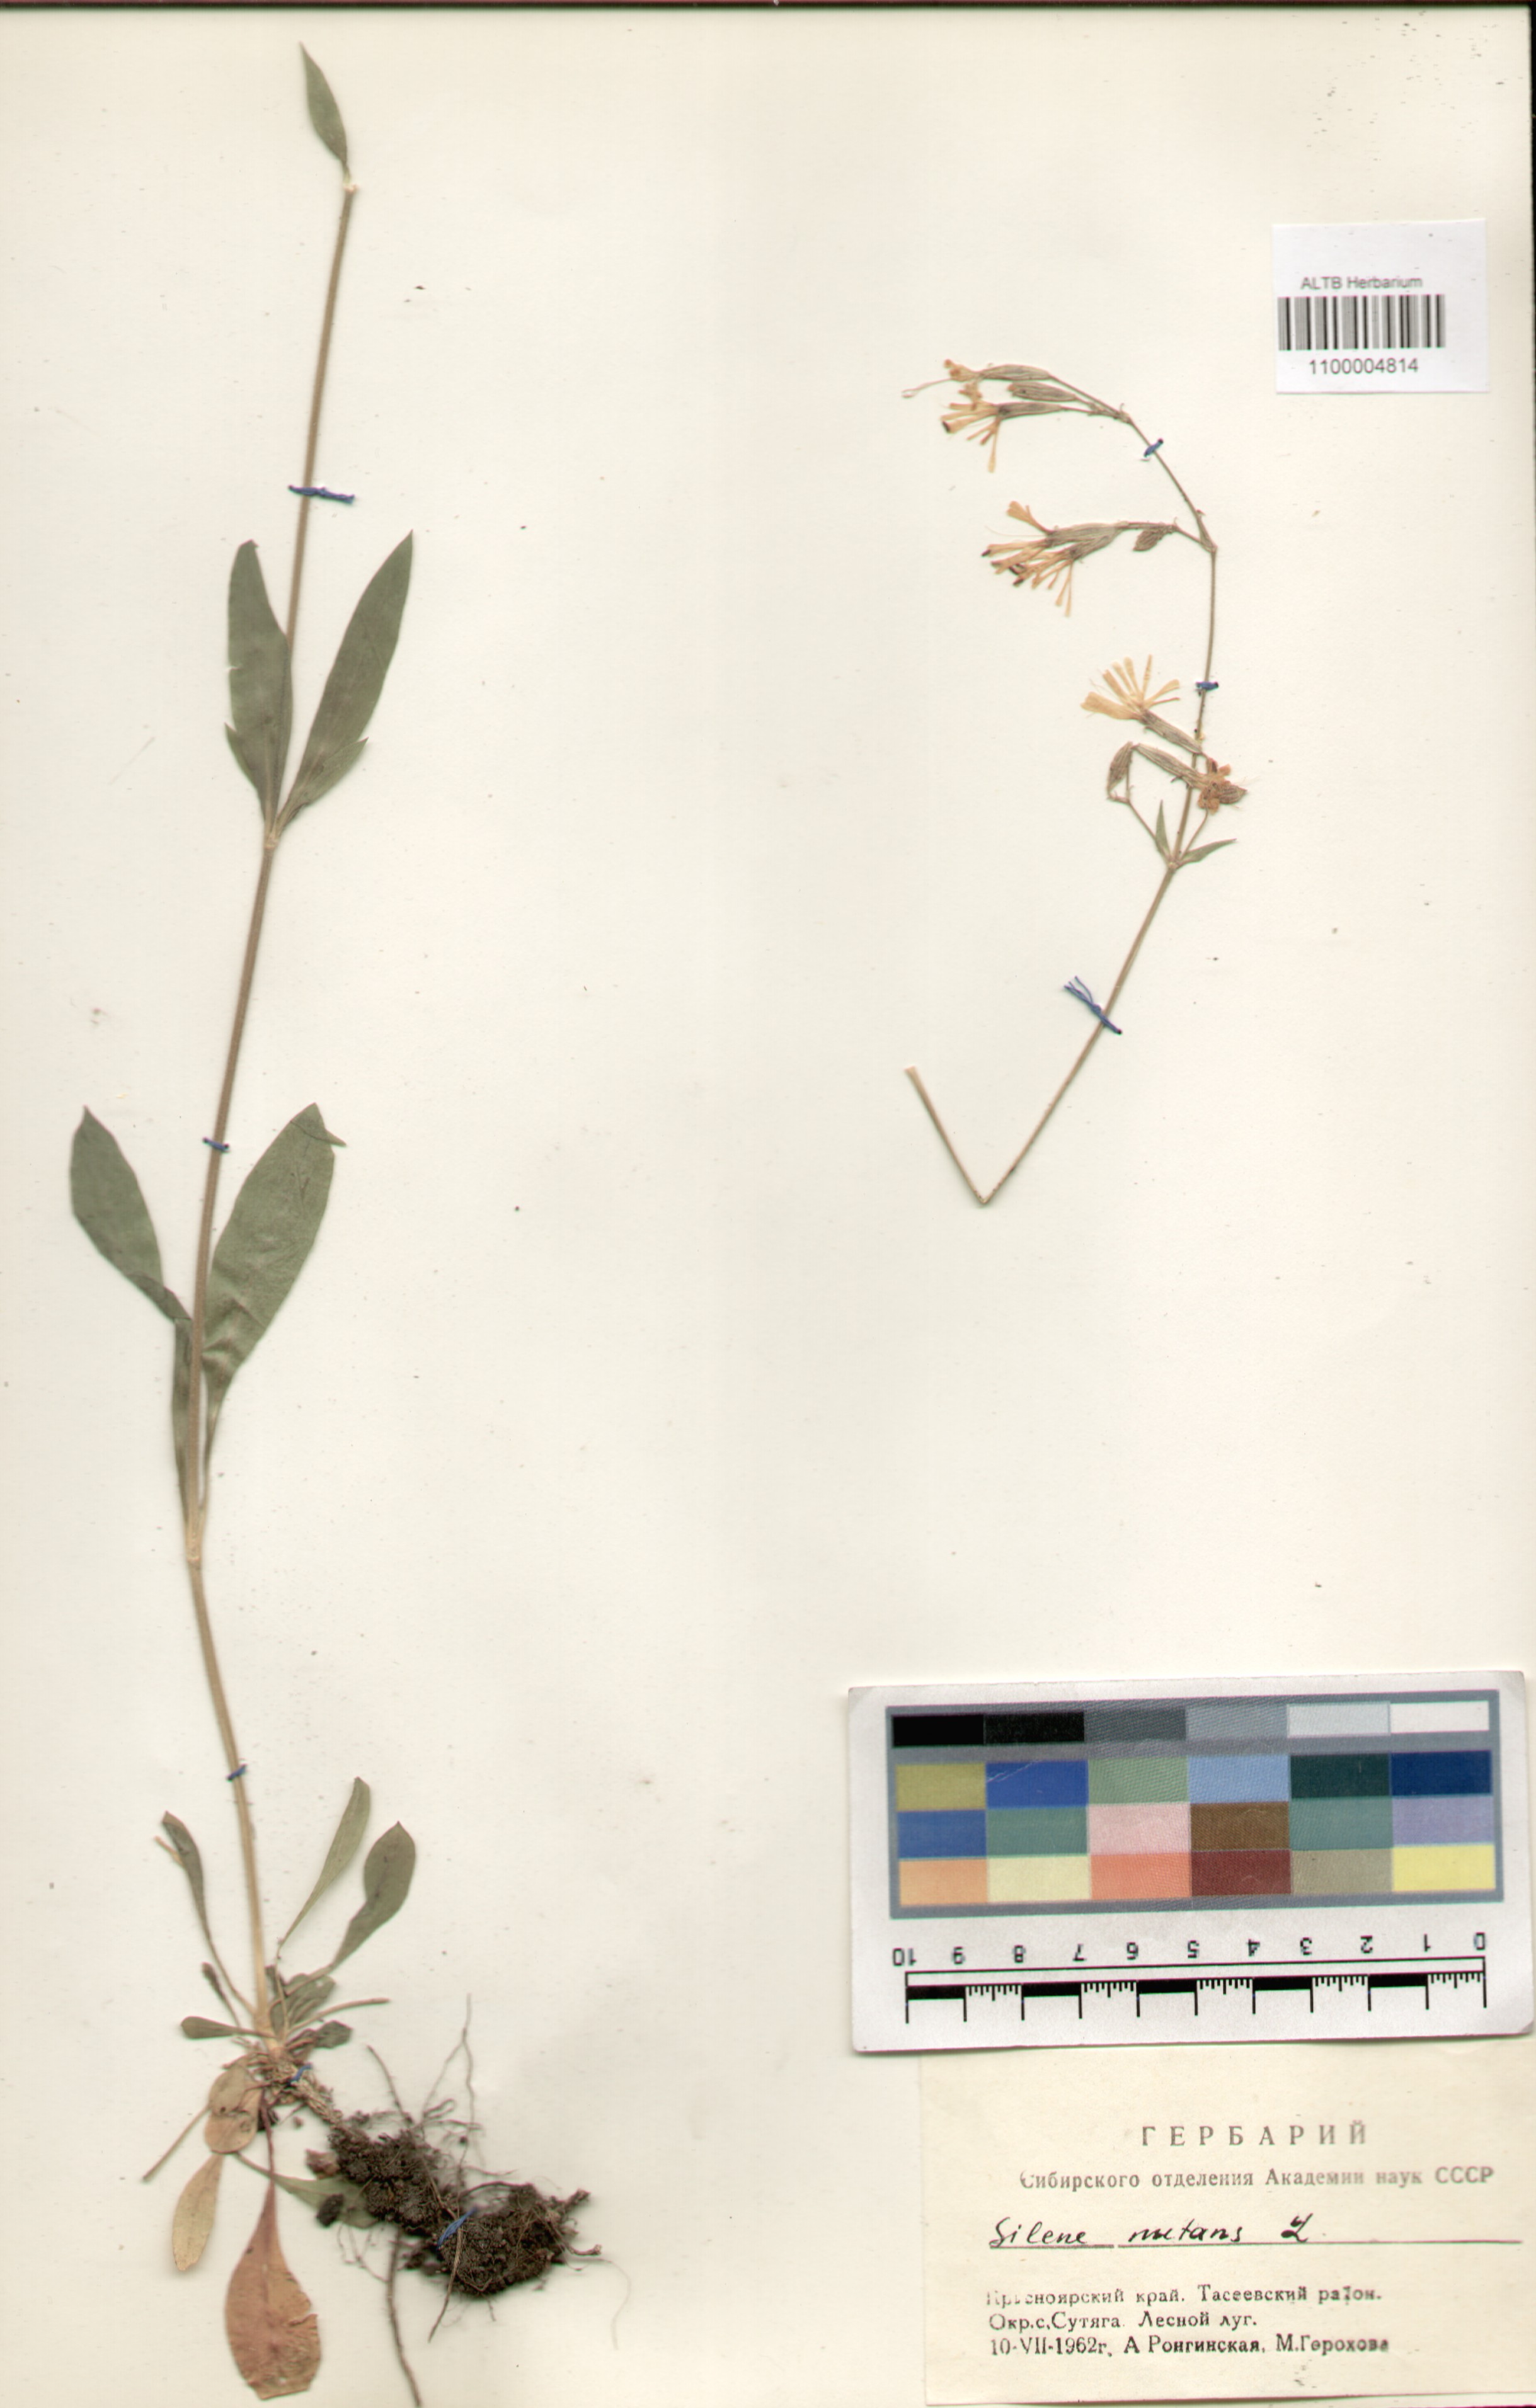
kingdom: Plantae
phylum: Tracheophyta
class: Magnoliopsida
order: Caryophyllales
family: Caryophyllaceae
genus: Silene
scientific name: Silene nutans
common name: Nottingham catchfly
